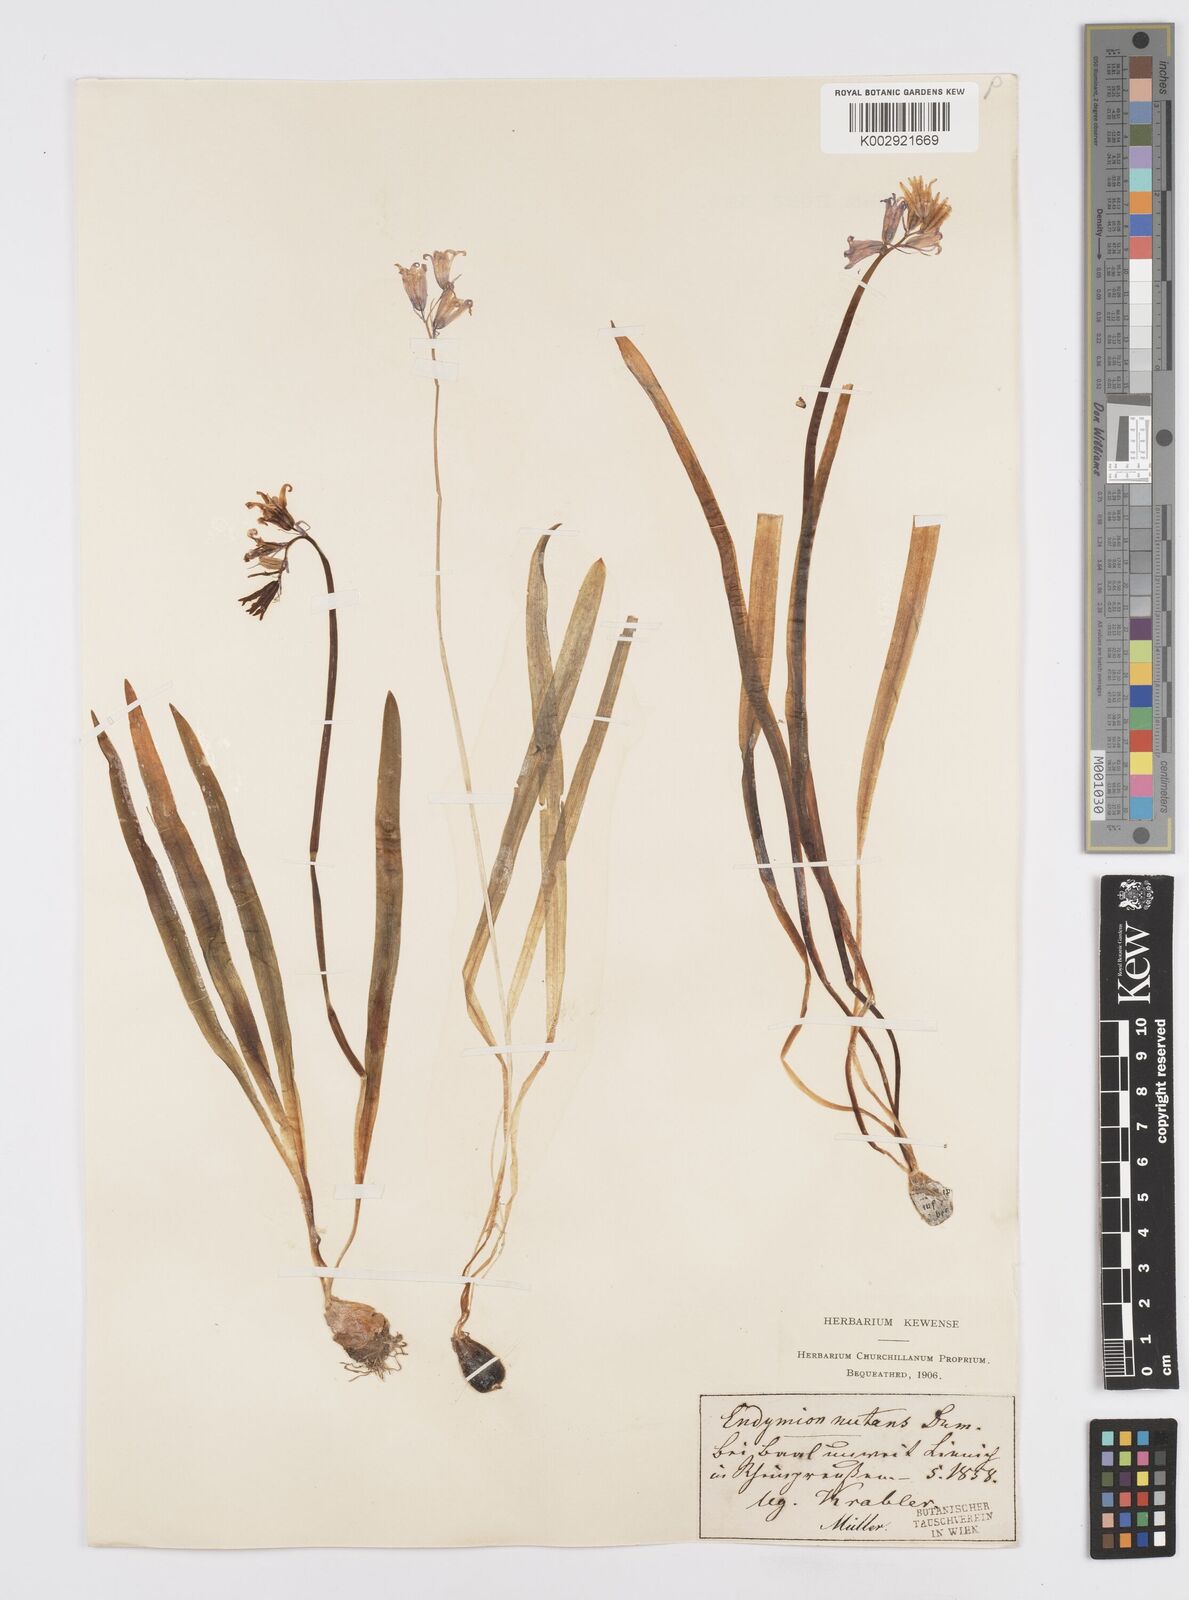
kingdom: Plantae
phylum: Tracheophyta
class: Liliopsida
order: Asparagales
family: Asparagaceae
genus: Hyacinthoides
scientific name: Hyacinthoides non-scripta
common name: Bluebell
